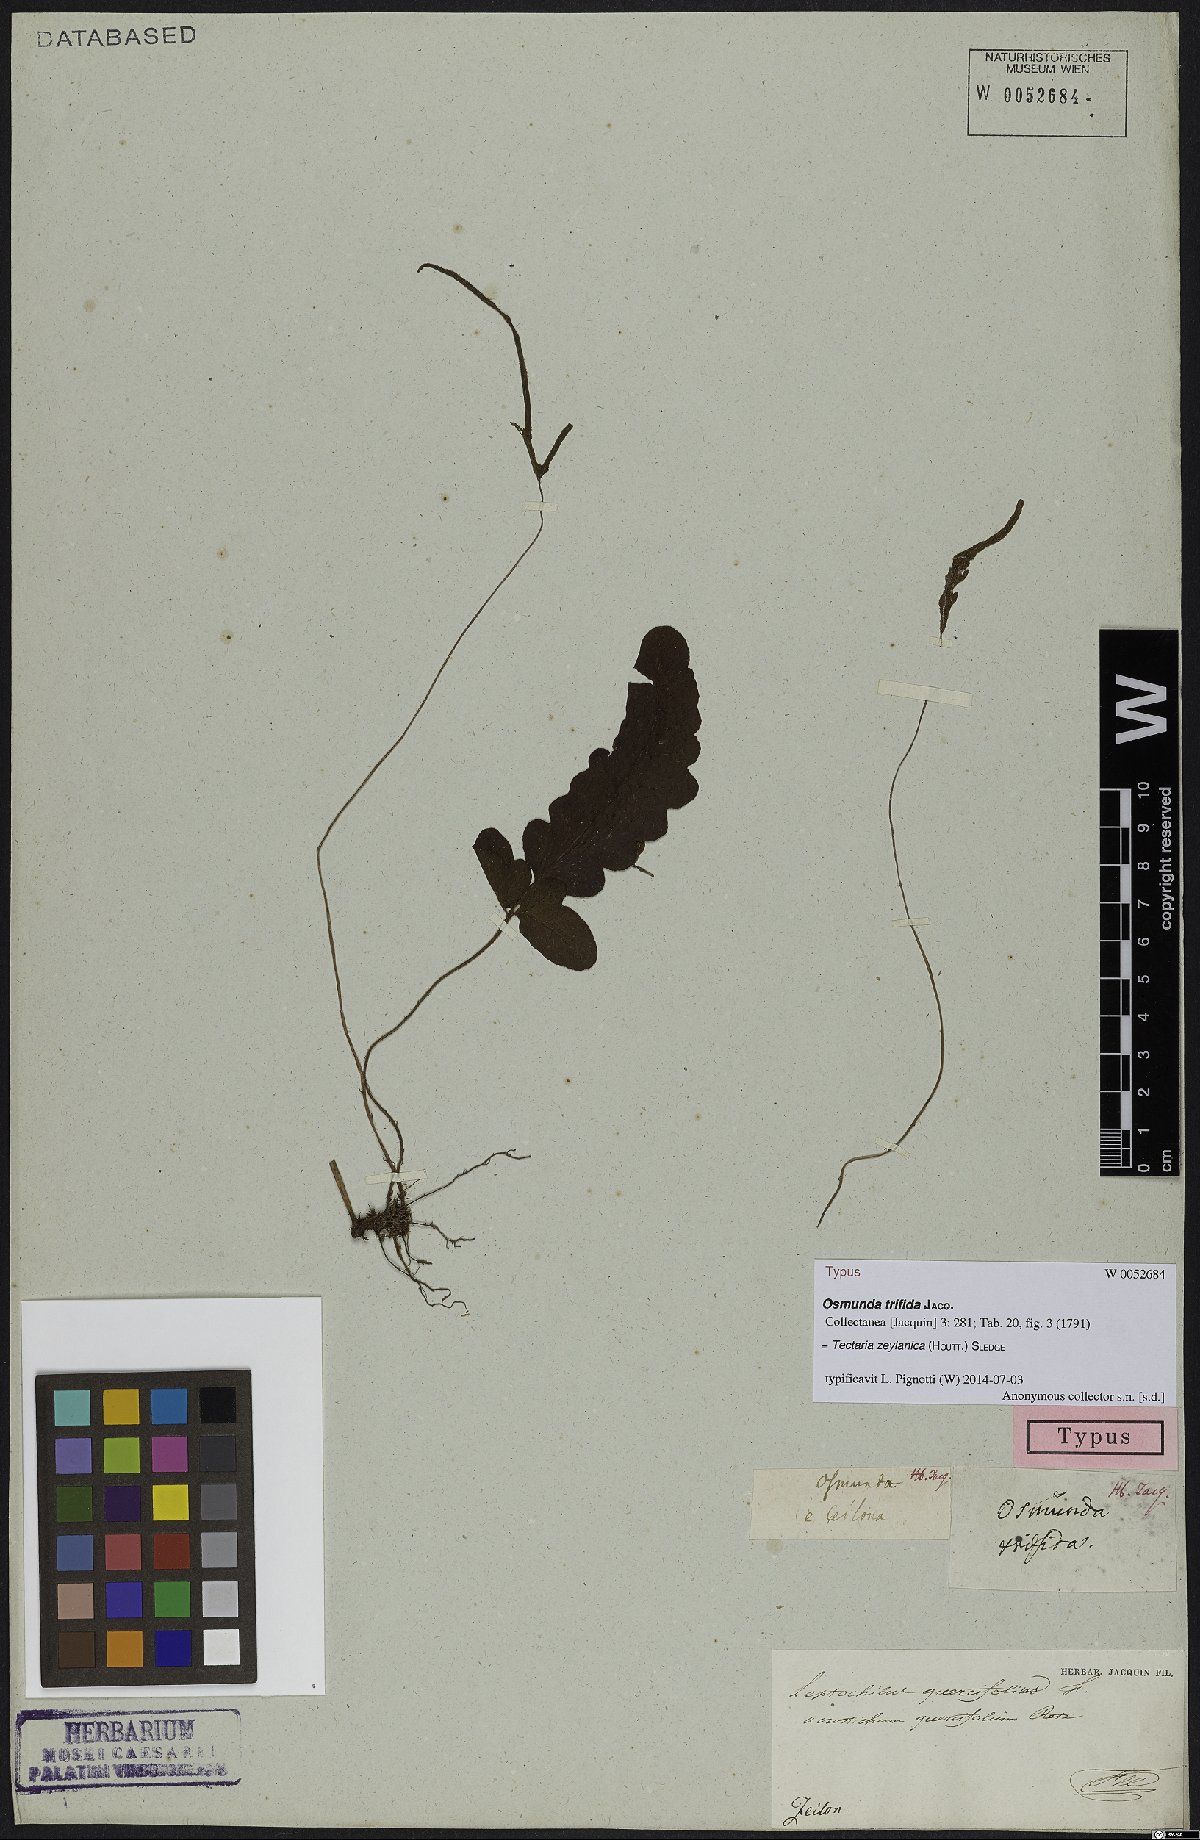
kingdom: Plantae
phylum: Tracheophyta
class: Polypodiopsida
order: Polypodiales
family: Tectariaceae
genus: Tectaria
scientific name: Tectaria zeilanica
